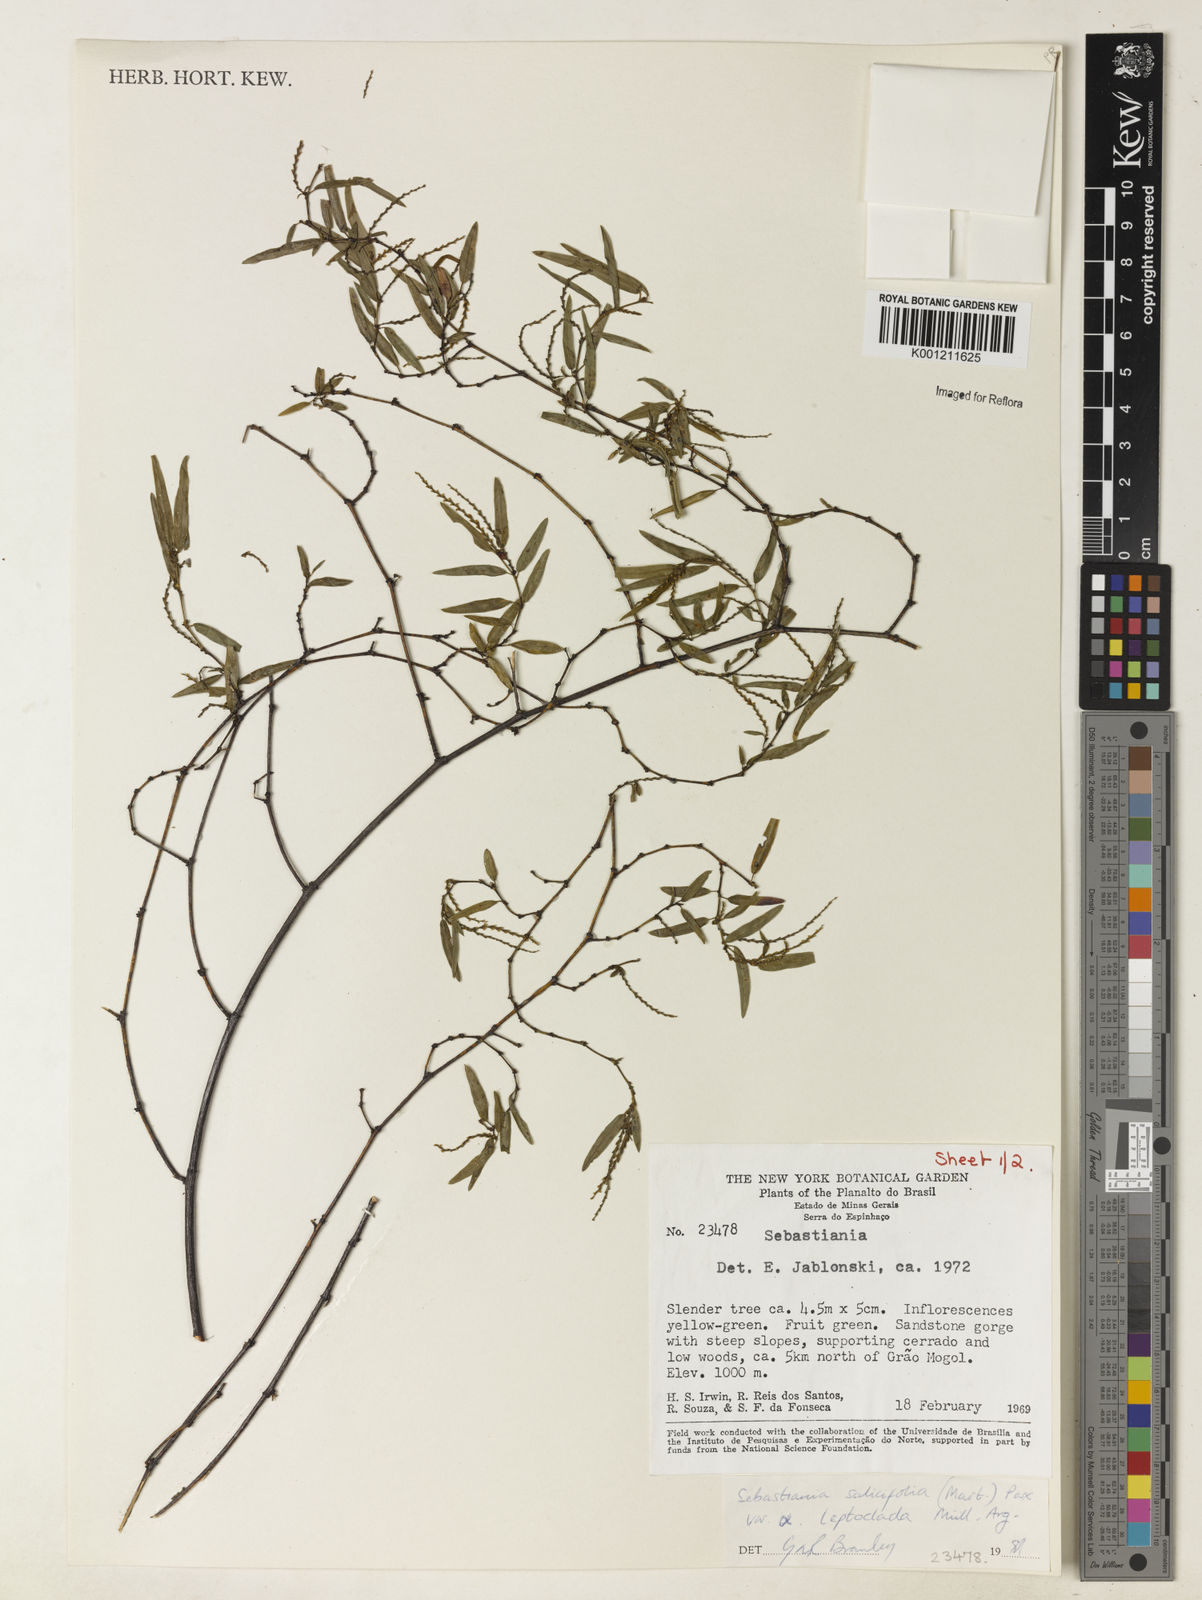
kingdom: Plantae
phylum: Tracheophyta
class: Magnoliopsida
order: Malpighiales
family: Euphorbiaceae
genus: Microstachys
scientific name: Microstachys
